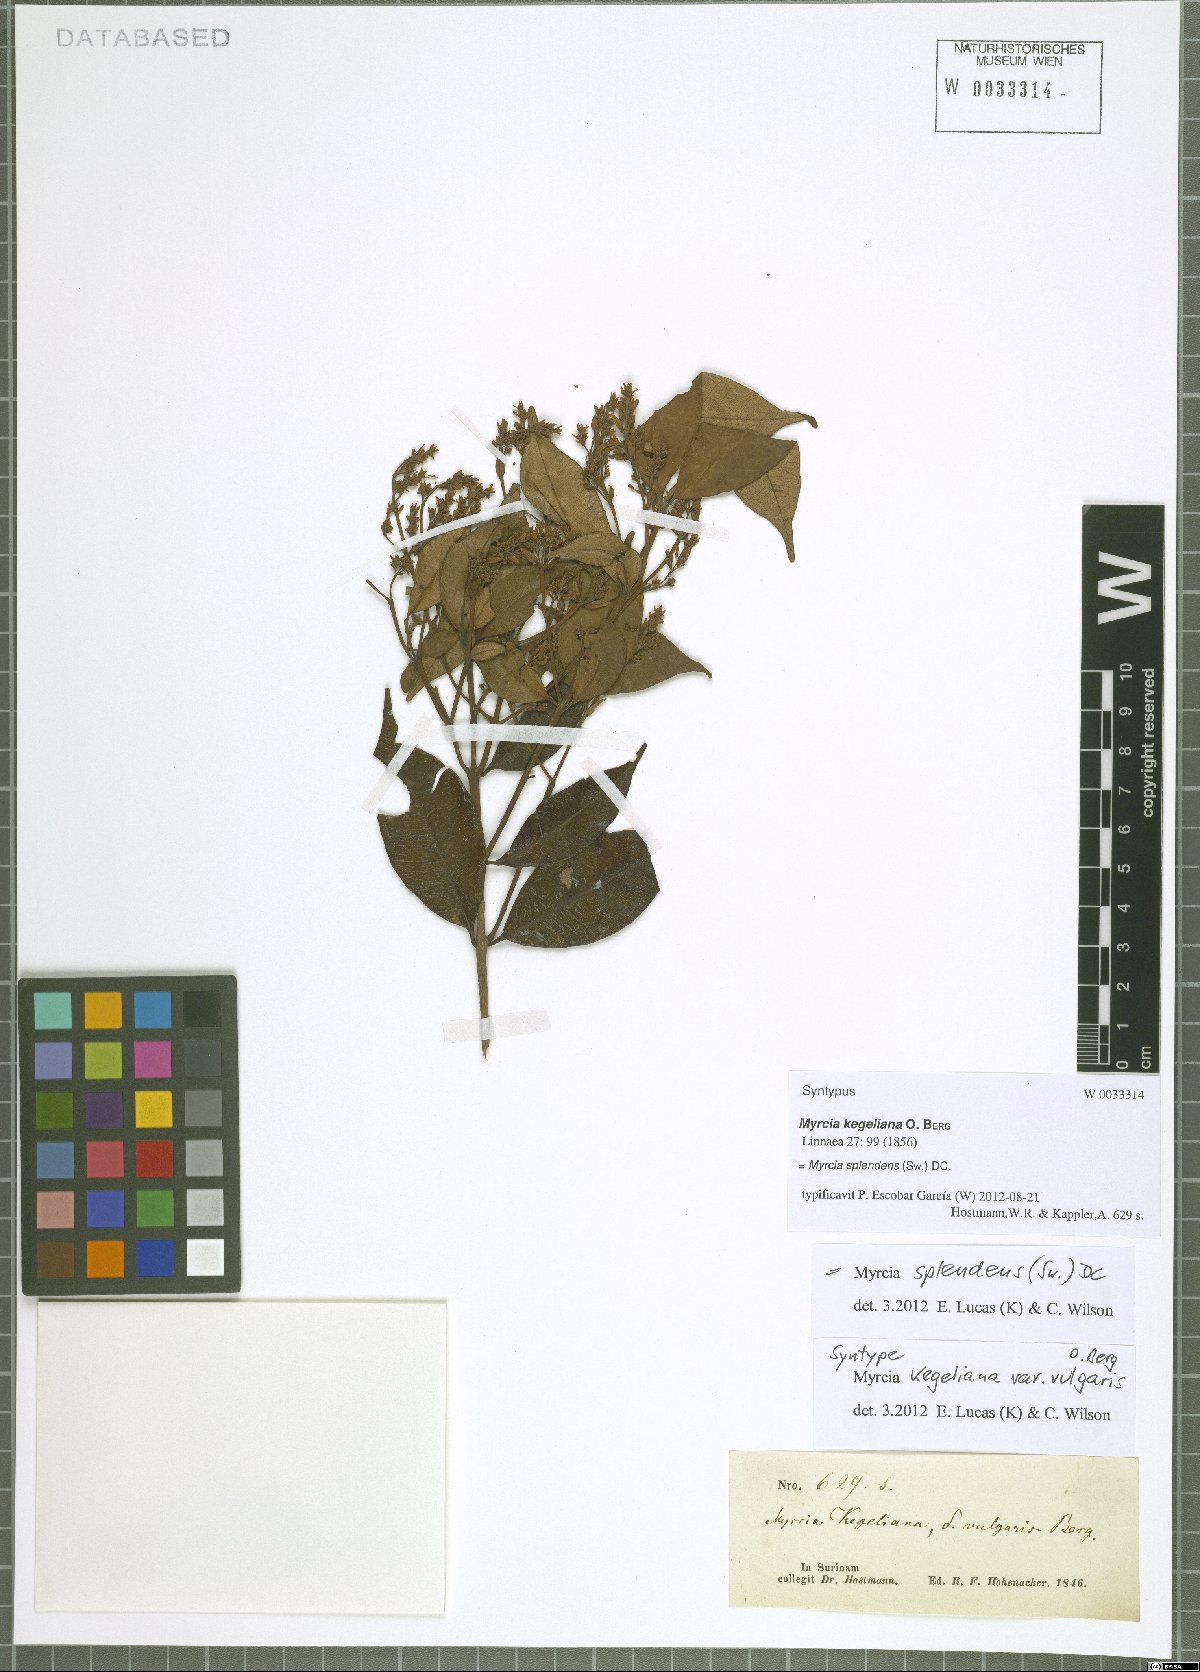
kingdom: Plantae
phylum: Tracheophyta
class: Magnoliopsida
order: Myrtales
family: Myrtaceae
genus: Myrcia
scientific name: Myrcia splendens
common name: Surinam cherry
